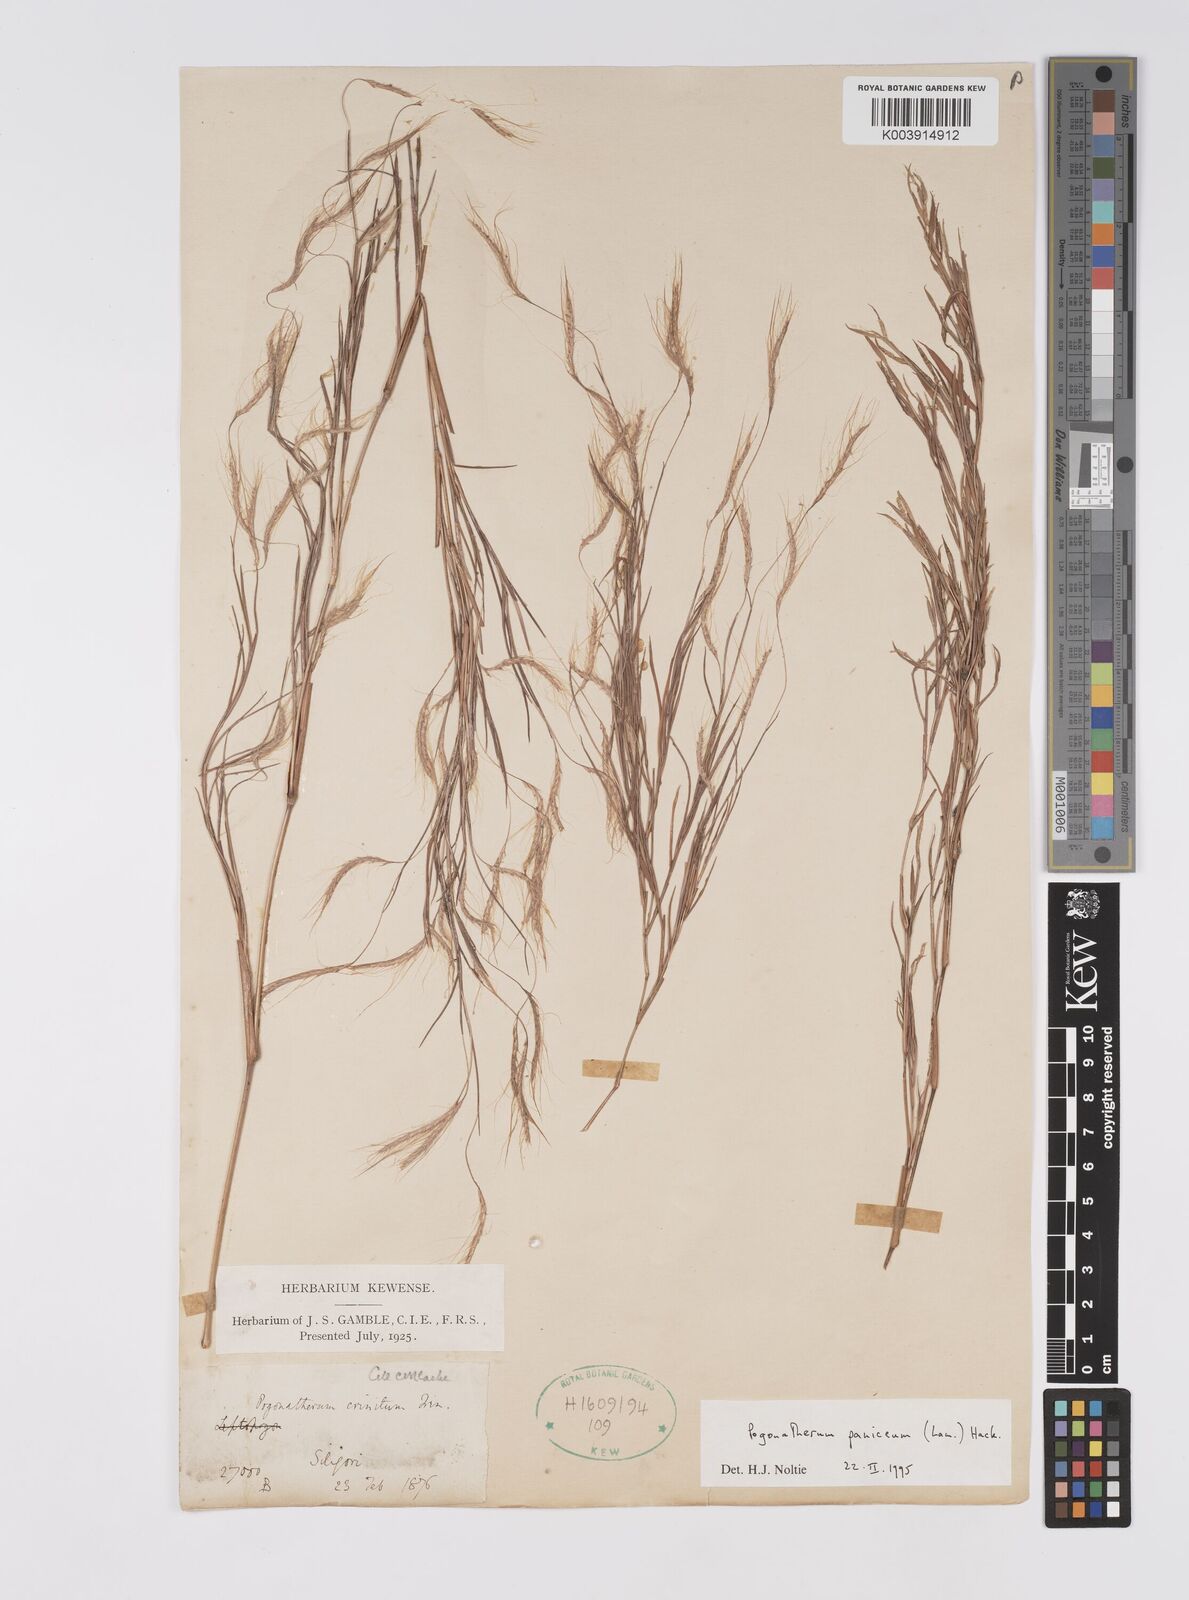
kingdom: Plantae
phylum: Tracheophyta
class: Liliopsida
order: Poales
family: Poaceae
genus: Pogonatherum
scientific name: Pogonatherum paniceum
